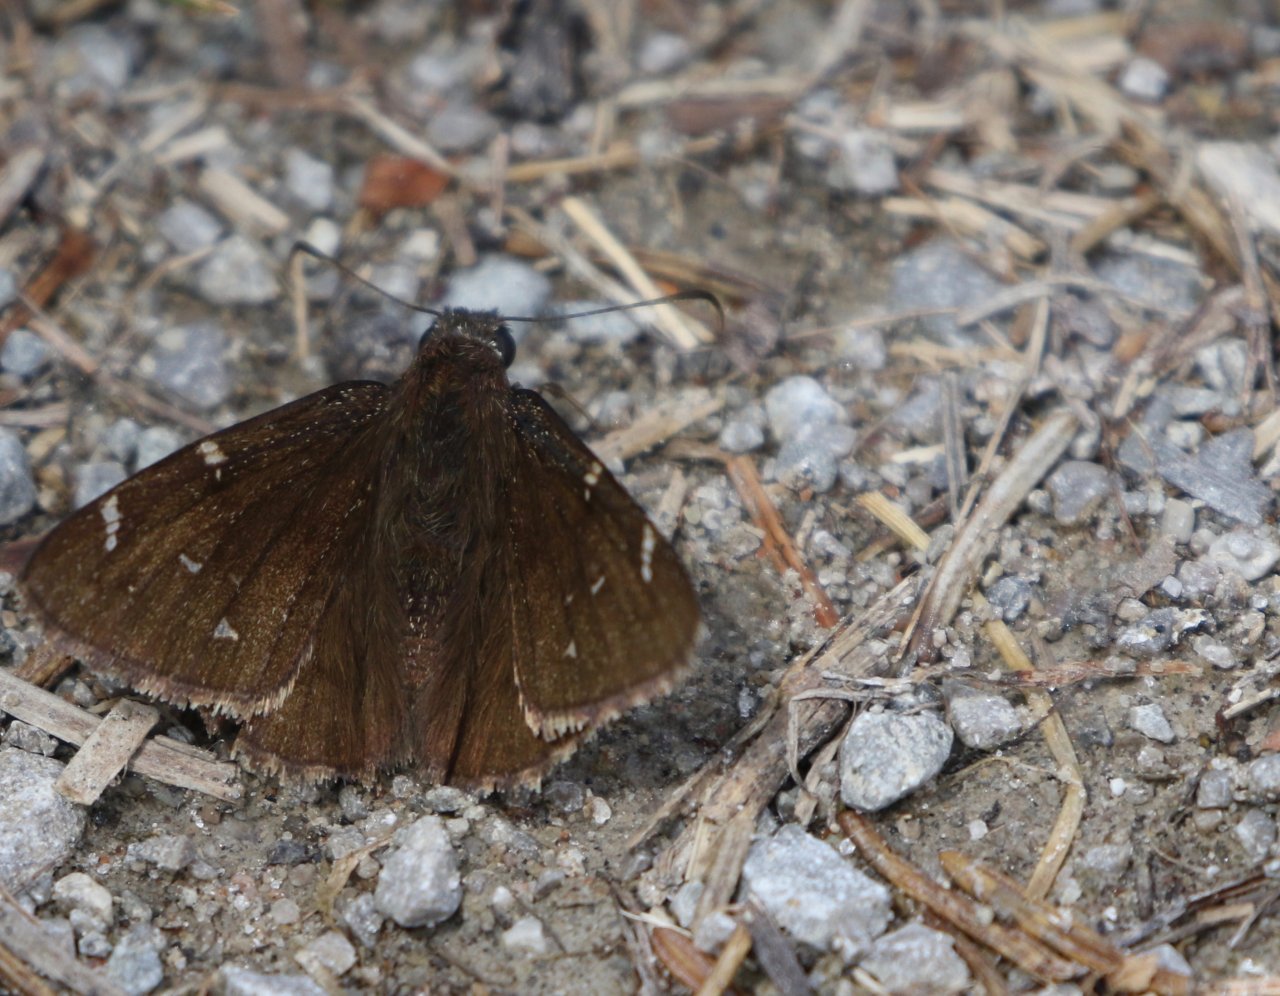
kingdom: Animalia
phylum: Arthropoda
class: Insecta
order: Lepidoptera
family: Hesperiidae
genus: Autochton
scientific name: Autochton
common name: Northern Cloudywing
